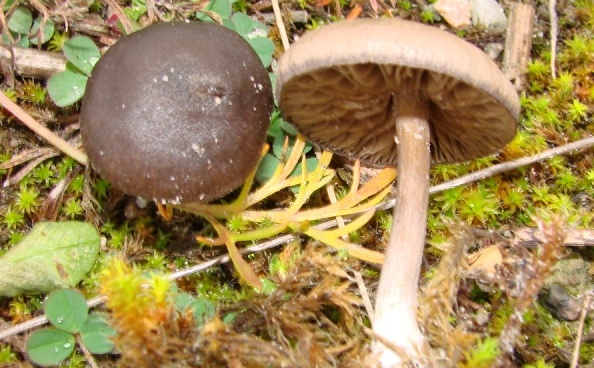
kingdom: Fungi
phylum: Basidiomycota
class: Agaricomycetes
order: Agaricales
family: Entolomataceae
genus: Entoloma
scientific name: Entoloma vindobonense
